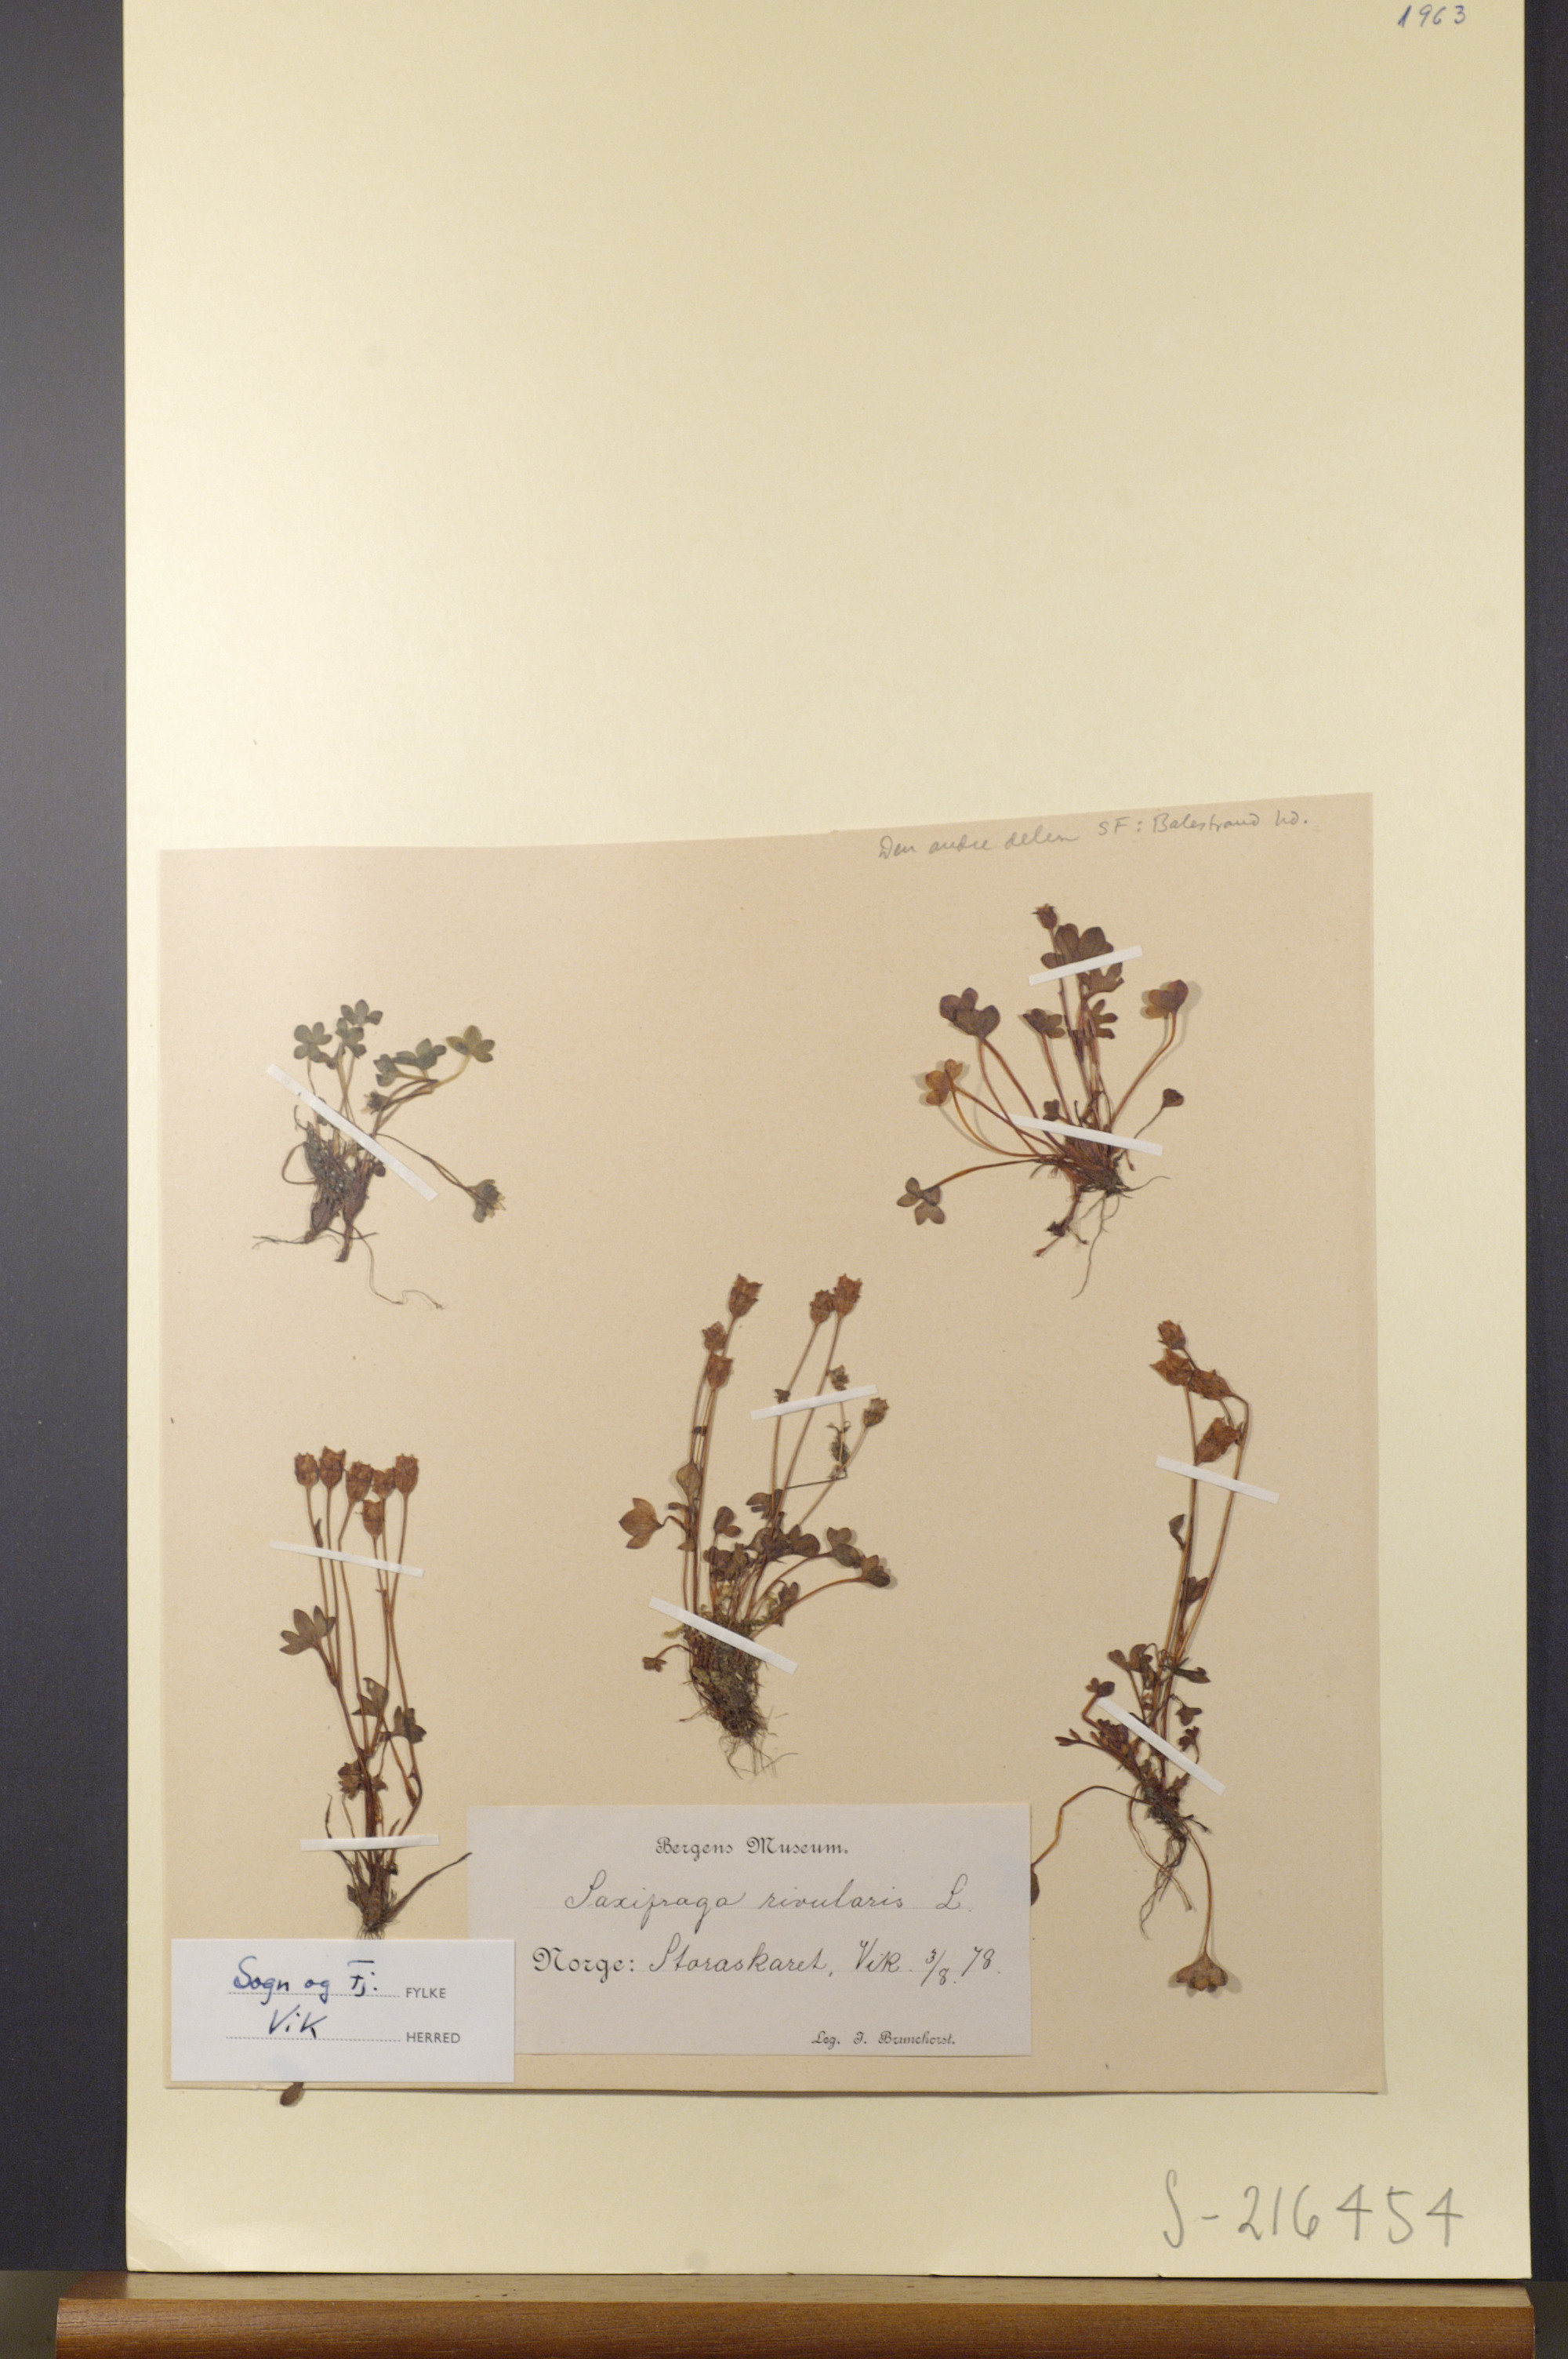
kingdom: Plantae
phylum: Tracheophyta
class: Magnoliopsida
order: Saxifragales
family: Saxifragaceae
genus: Saxifraga
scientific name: Saxifraga rivularis
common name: Highland saxifrage
